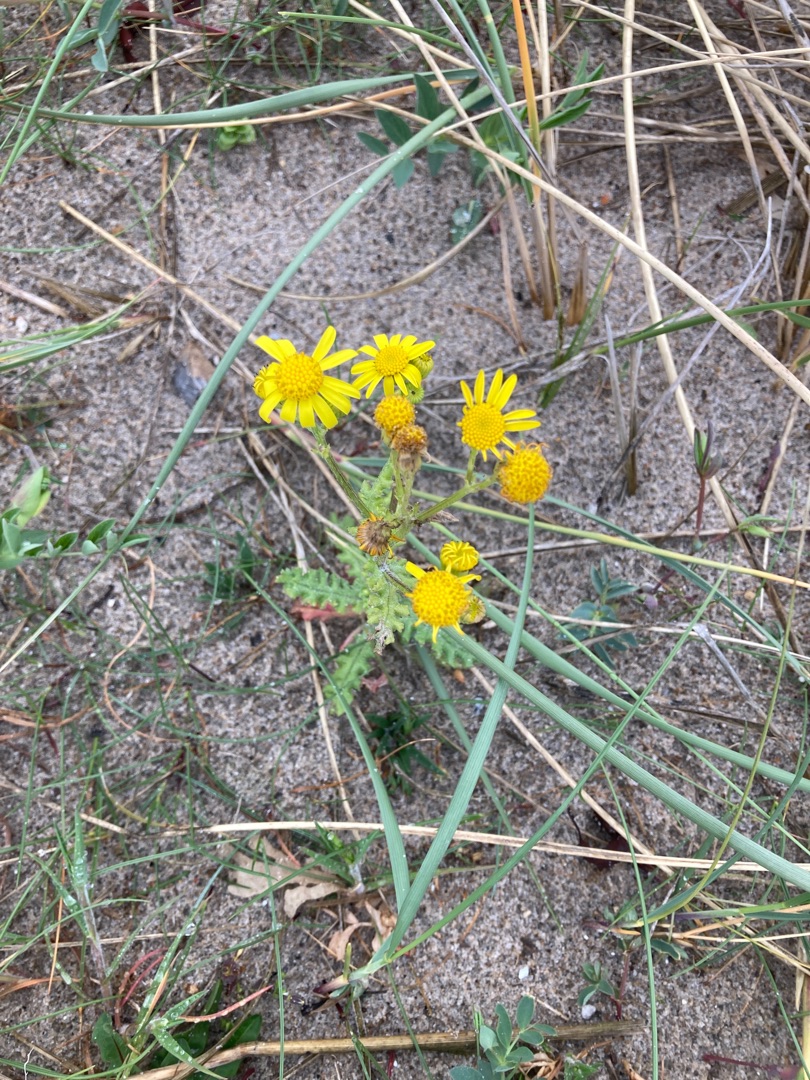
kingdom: Plantae
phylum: Tracheophyta
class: Magnoliopsida
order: Asterales
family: Asteraceae
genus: Senecio
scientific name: Senecio leucanthemifolius
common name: Vår-brandbæger
